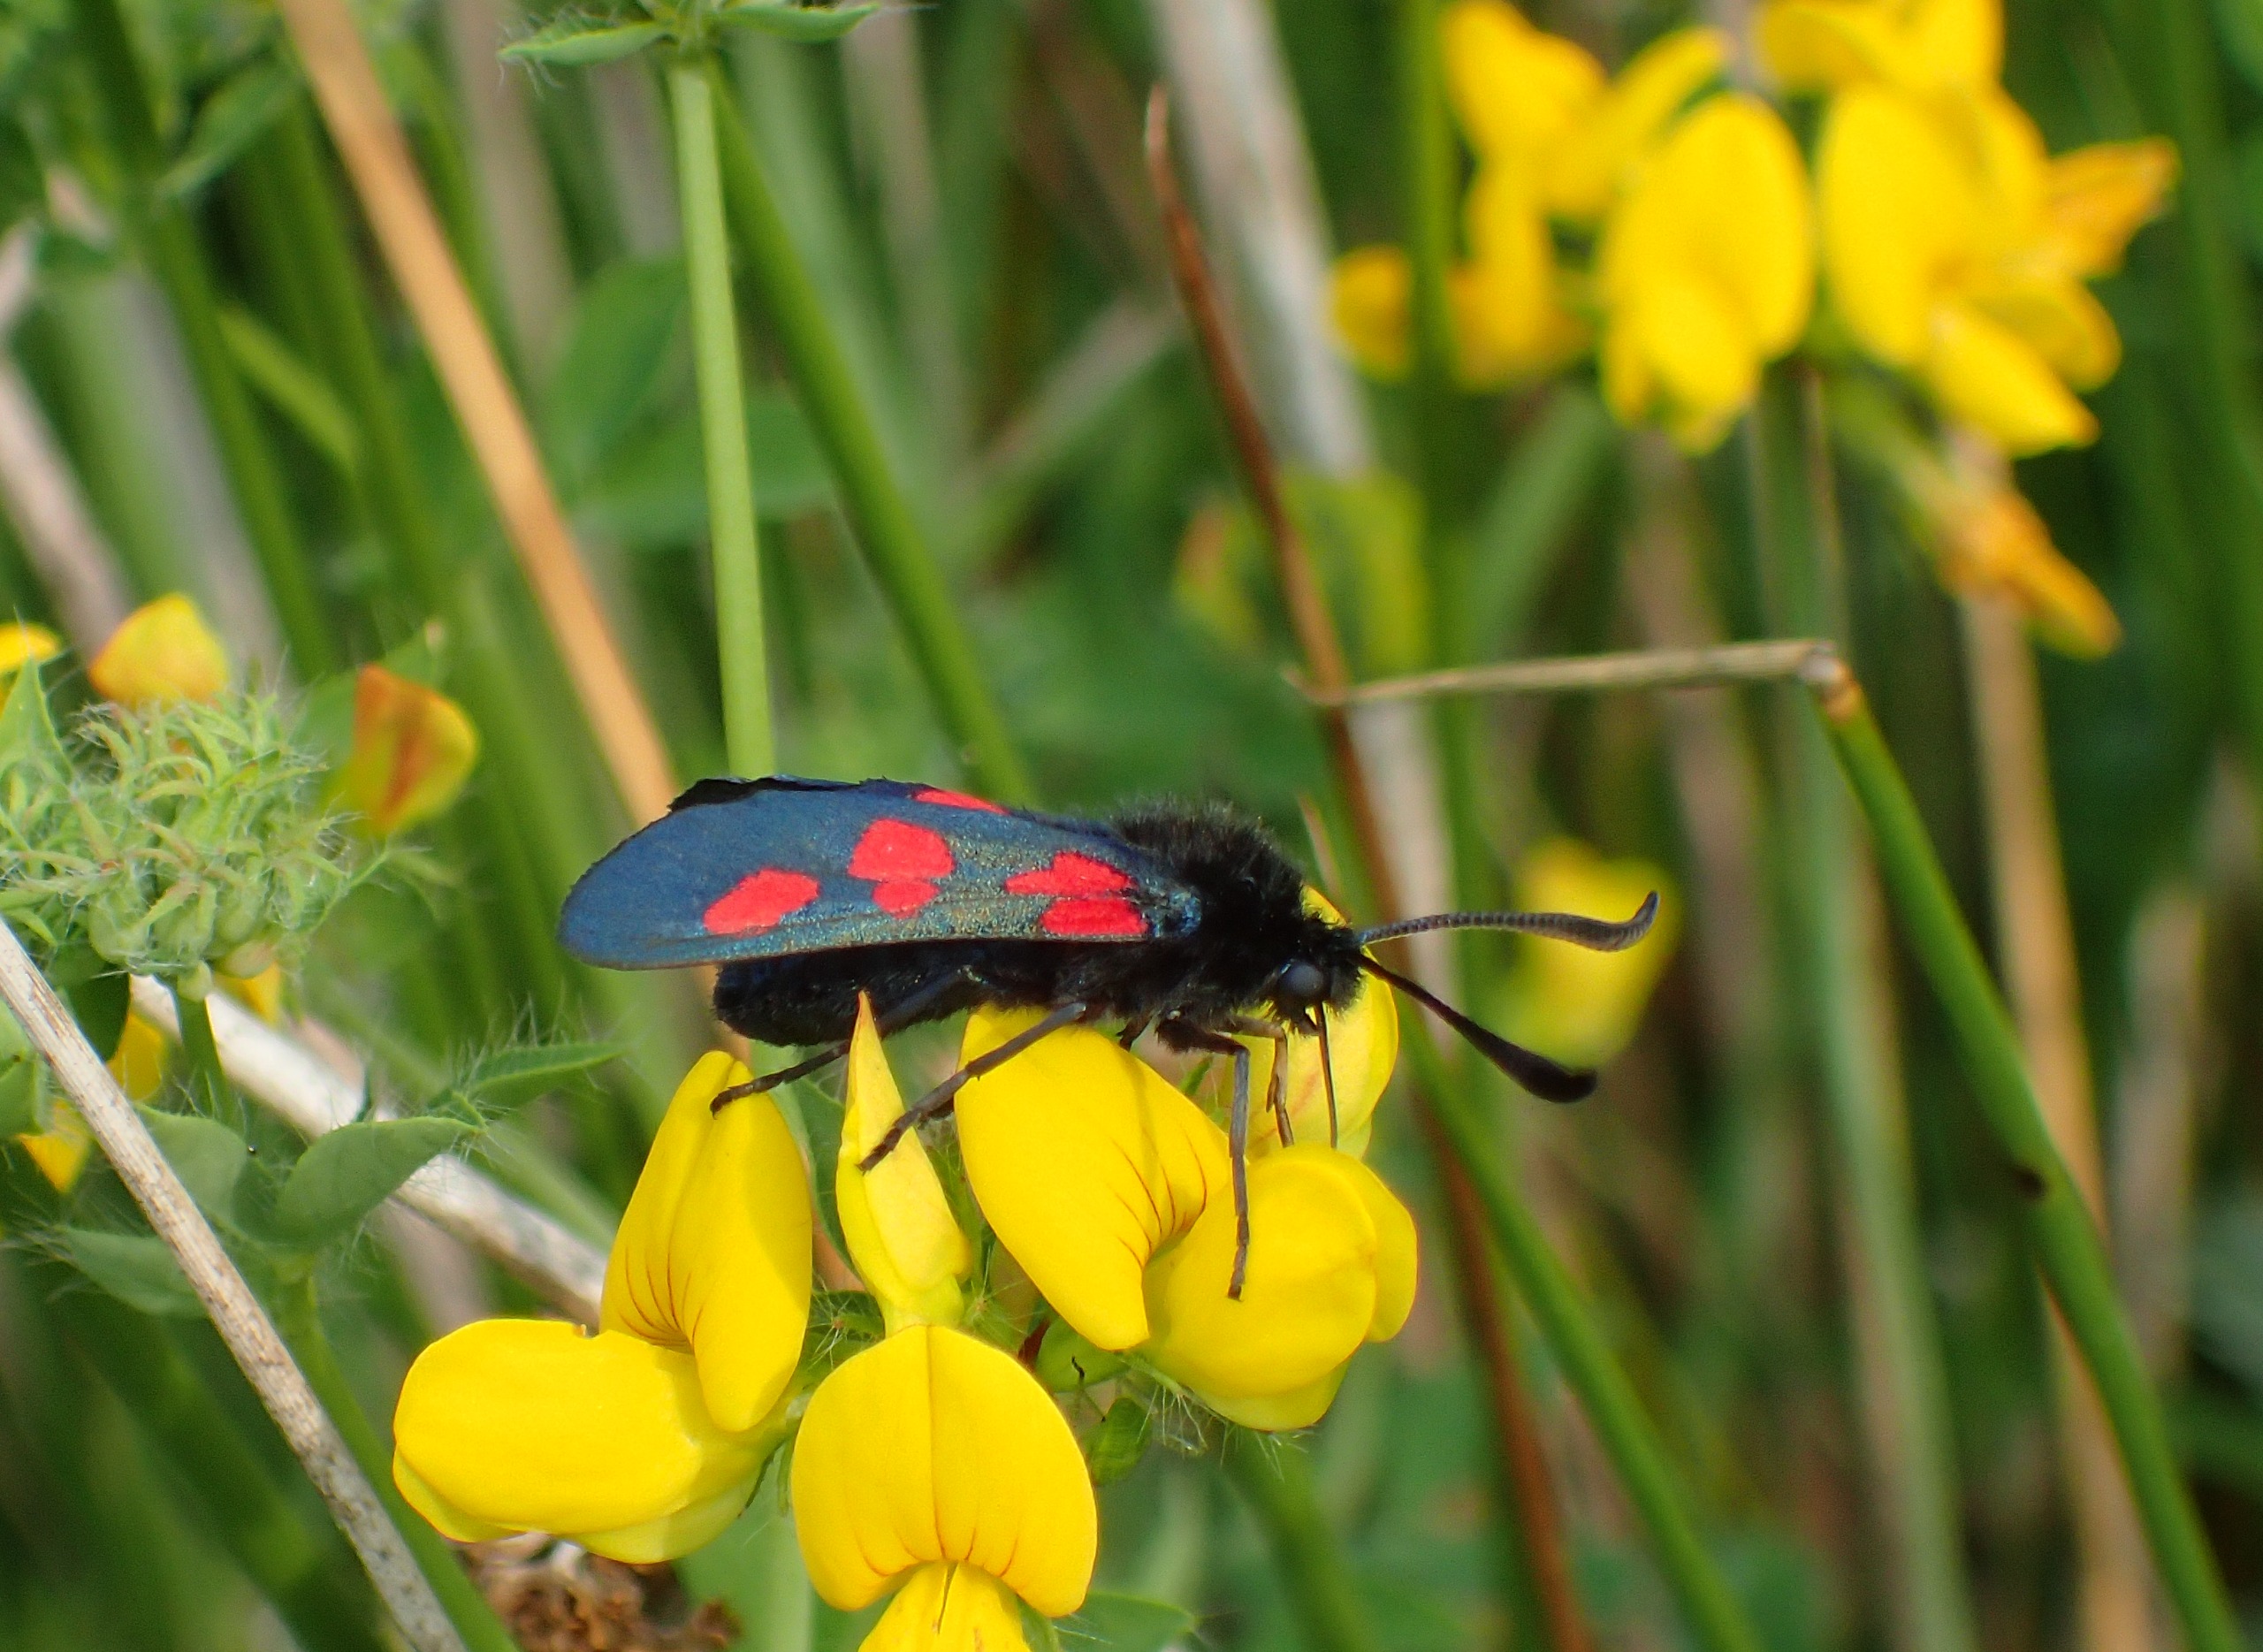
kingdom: Animalia
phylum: Arthropoda
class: Insecta
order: Lepidoptera
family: Zygaenidae
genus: Zygaena
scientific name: Zygaena lonicerae
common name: Femplettet køllesværmer
